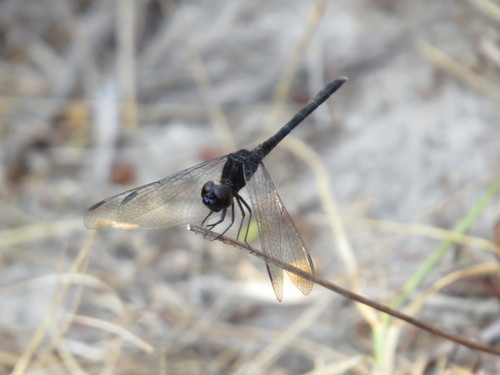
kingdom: Animalia
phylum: Arthropoda
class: Insecta
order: Odonata
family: Libellulidae
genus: Diplacodes
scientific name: Diplacodes lefebvrii
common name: Black percher
